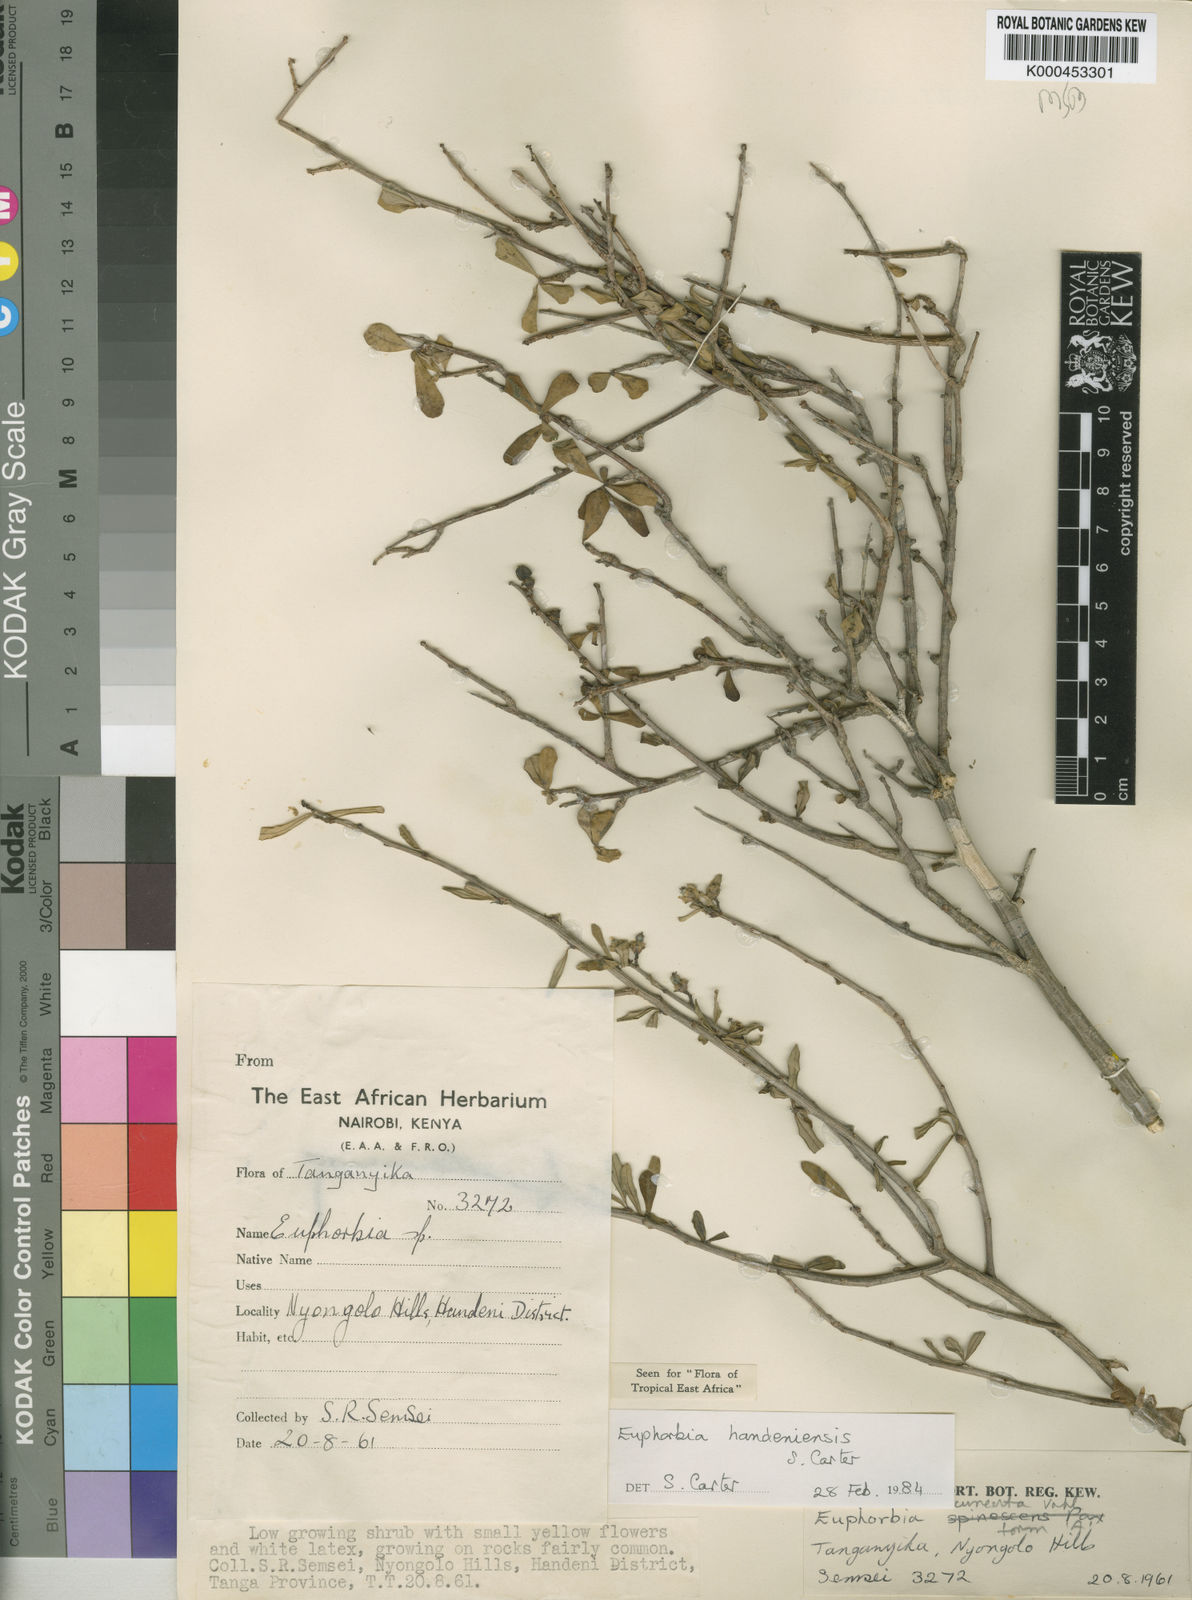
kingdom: Plantae
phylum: Tracheophyta
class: Magnoliopsida
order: Malpighiales
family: Euphorbiaceae
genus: Euphorbia
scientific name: Euphorbia handeniensis
